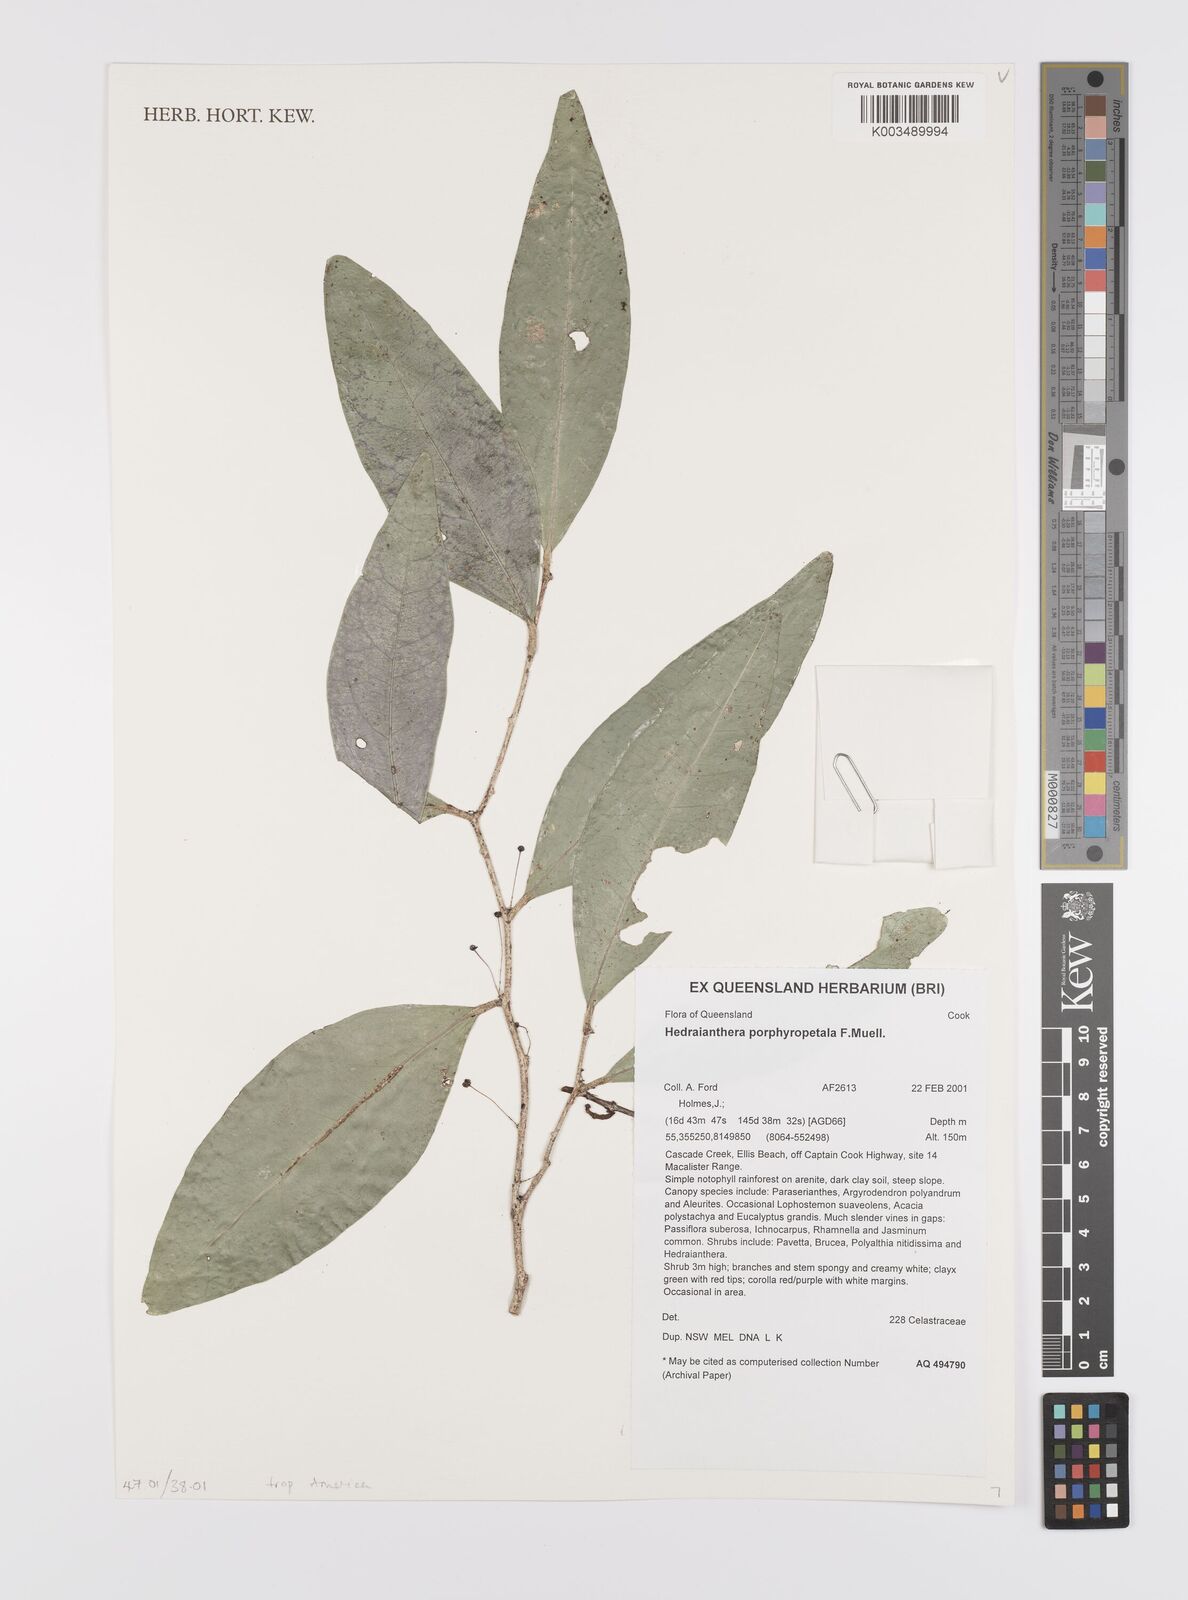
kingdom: Plantae
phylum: Tracheophyta
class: Magnoliopsida
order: Celastrales
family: Celastraceae
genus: Hedraianthera
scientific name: Hedraianthera porphyropetala
